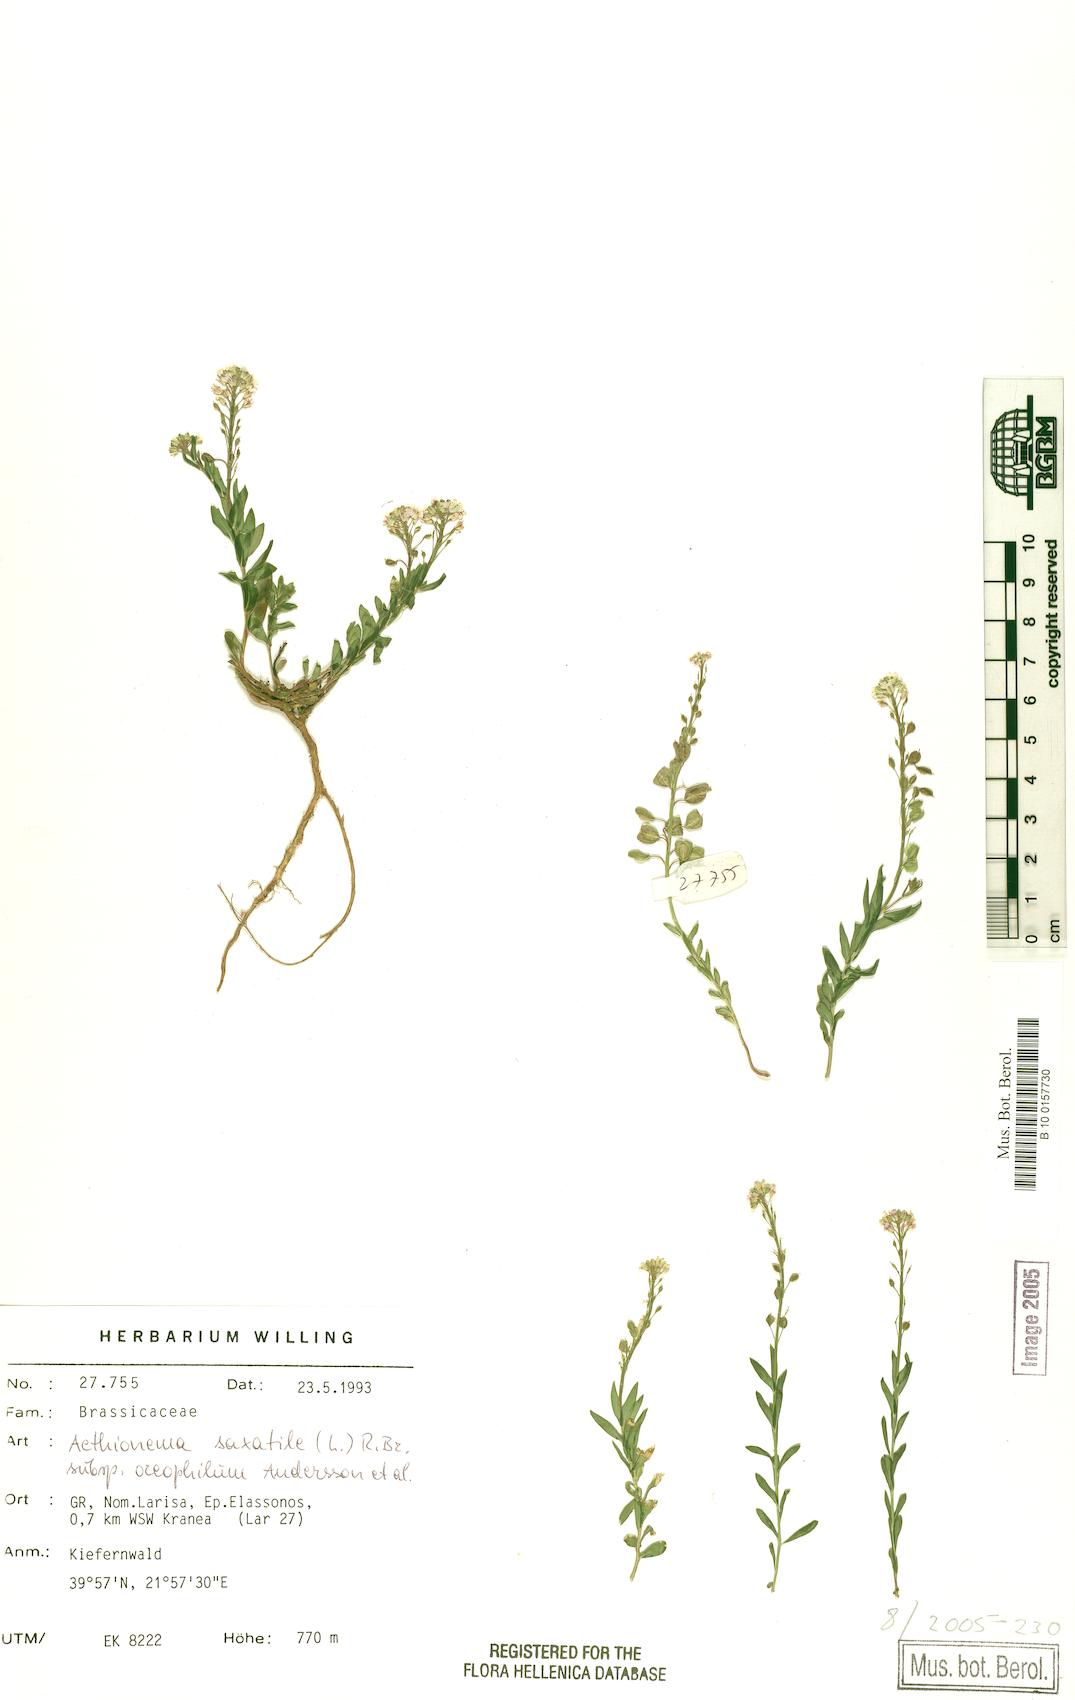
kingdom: Plantae
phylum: Tracheophyta
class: Magnoliopsida
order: Brassicales
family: Brassicaceae
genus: Aethionema
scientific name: Aethionema saxatile
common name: Burnt candytuft
